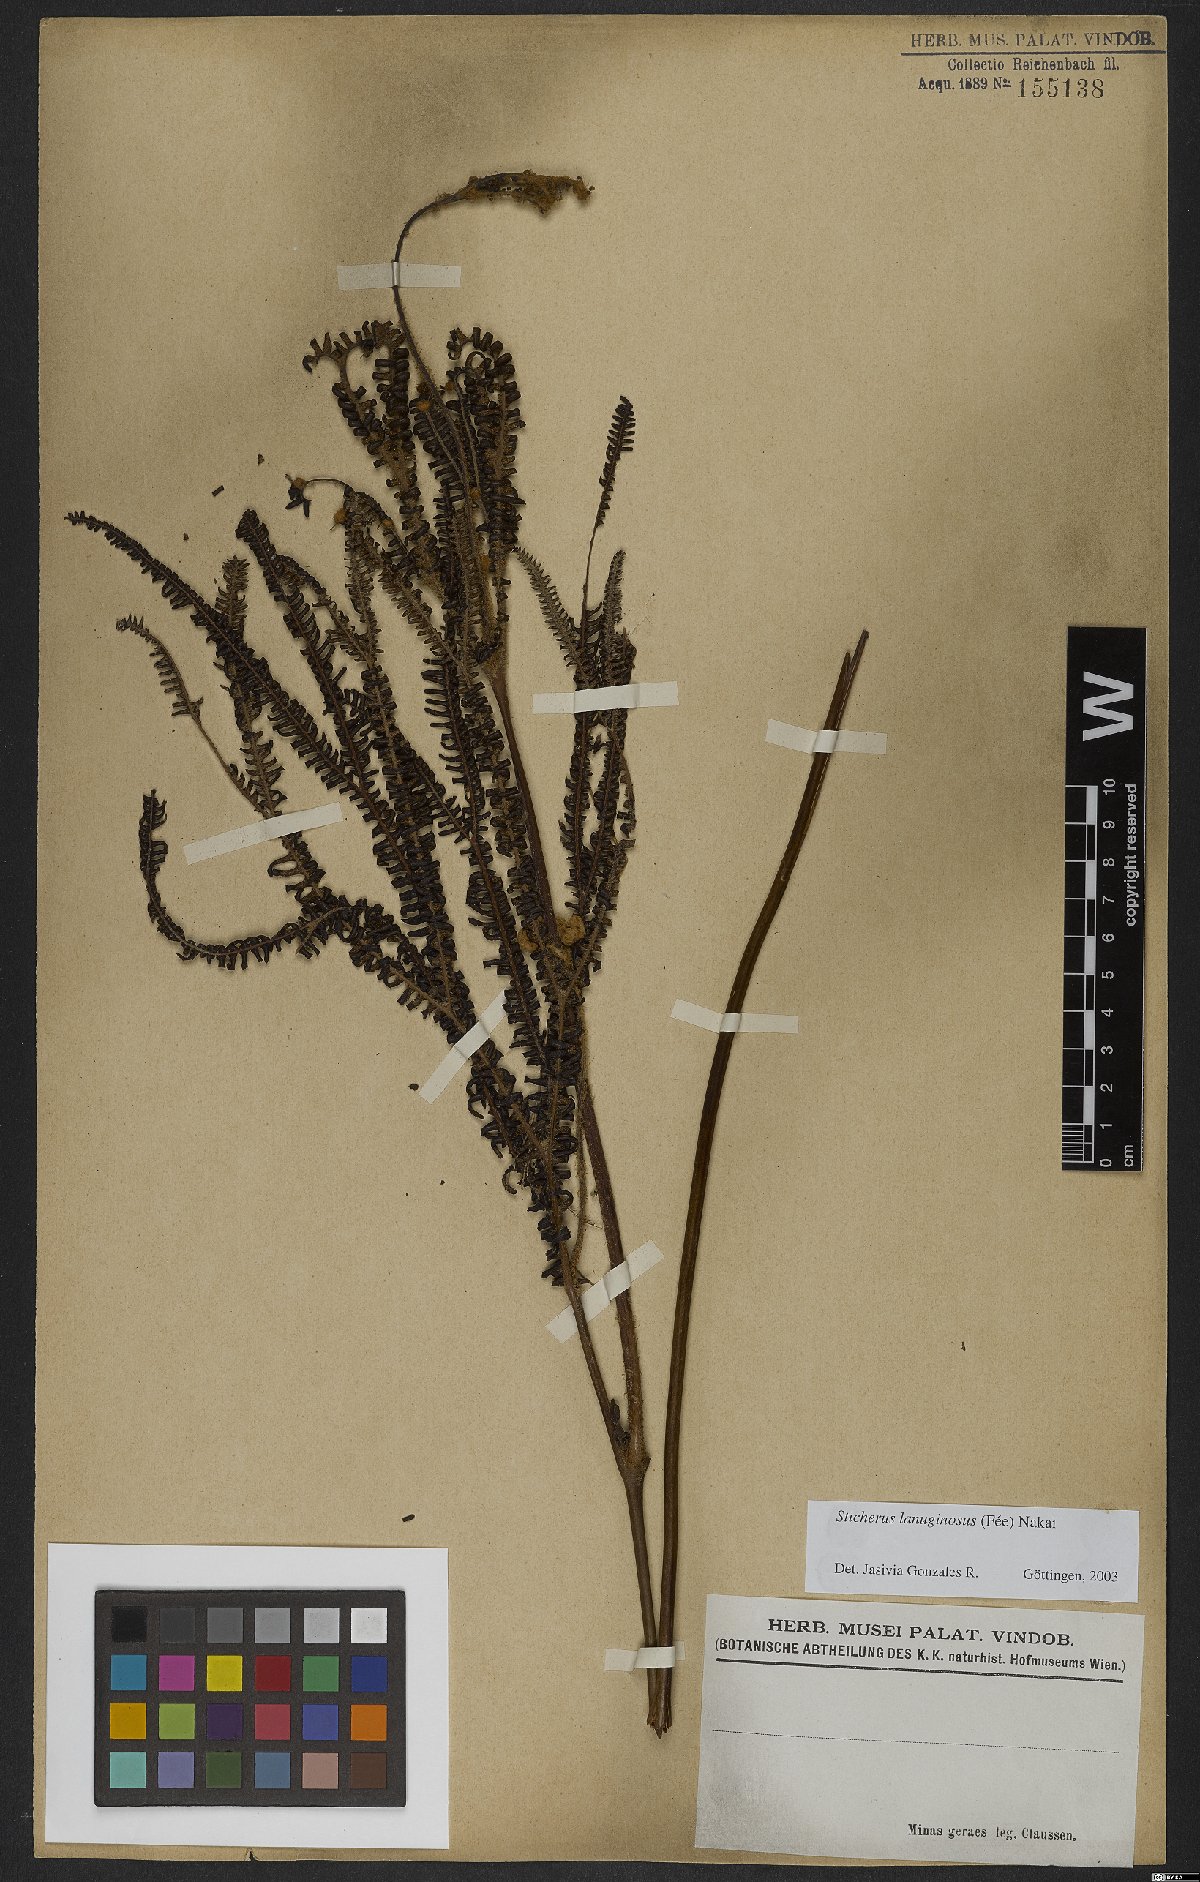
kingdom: Plantae
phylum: Tracheophyta
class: Polypodiopsida
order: Gleicheniales
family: Gleicheniaceae
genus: Sticherus
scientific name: Sticherus lanuginosus
